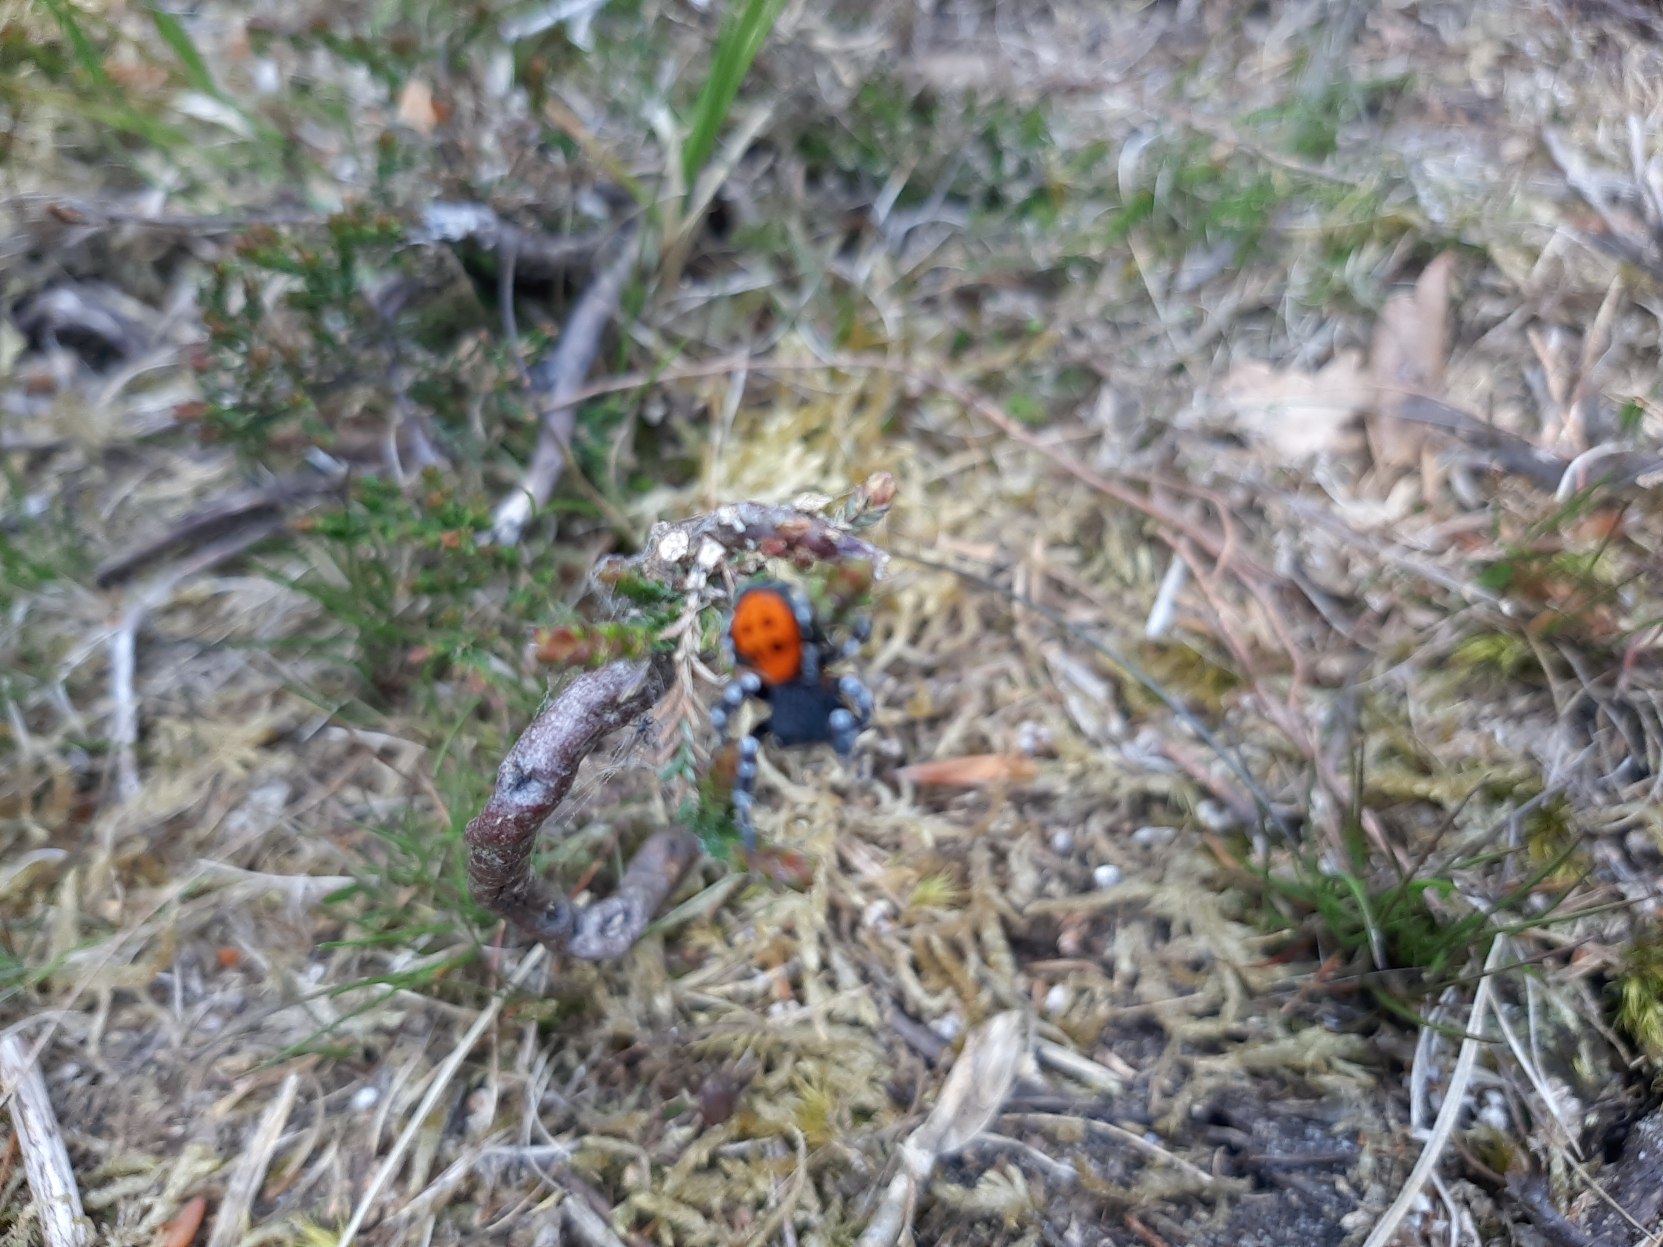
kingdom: Animalia
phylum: Arthropoda
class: Arachnida
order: Araneae
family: Eresidae
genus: Eresus
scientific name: Eresus sandaliatus
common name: Mariehøneedderkop
